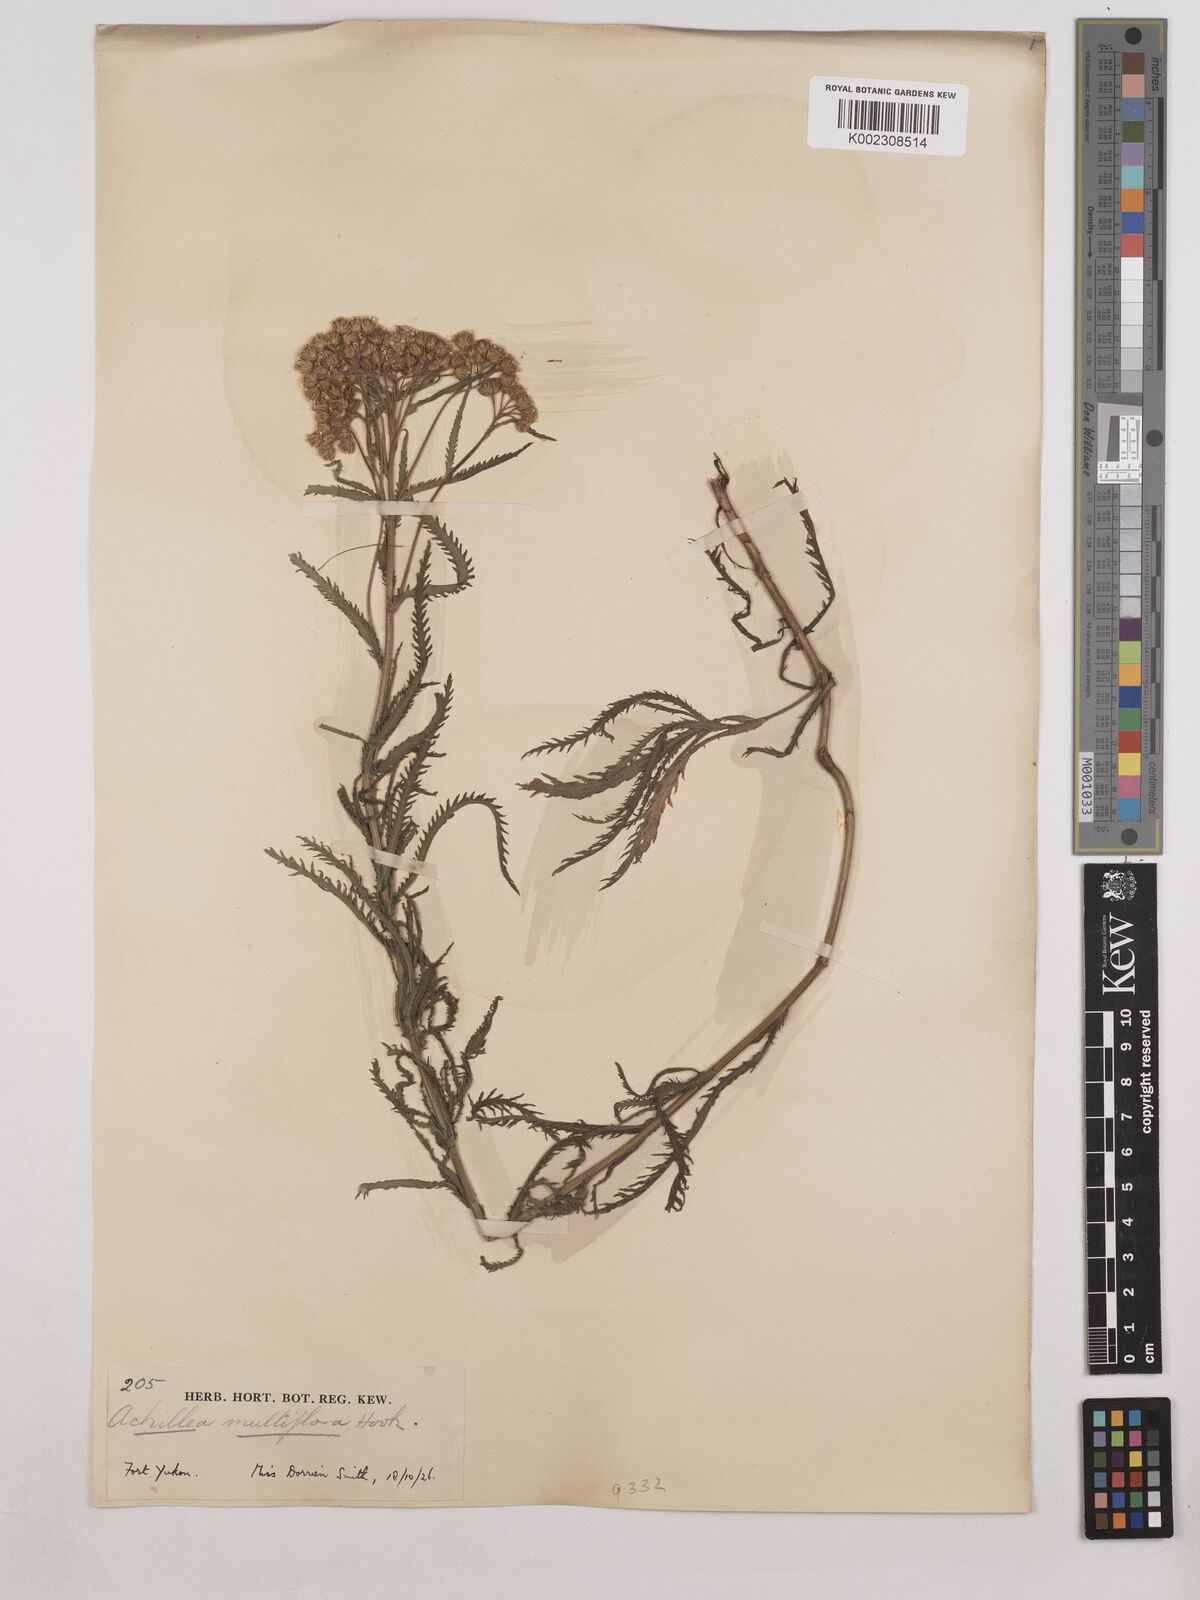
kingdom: Plantae
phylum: Tracheophyta
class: Magnoliopsida
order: Asterales
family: Asteraceae
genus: Achillea
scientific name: Achillea alpina
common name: Siberian yarrow
